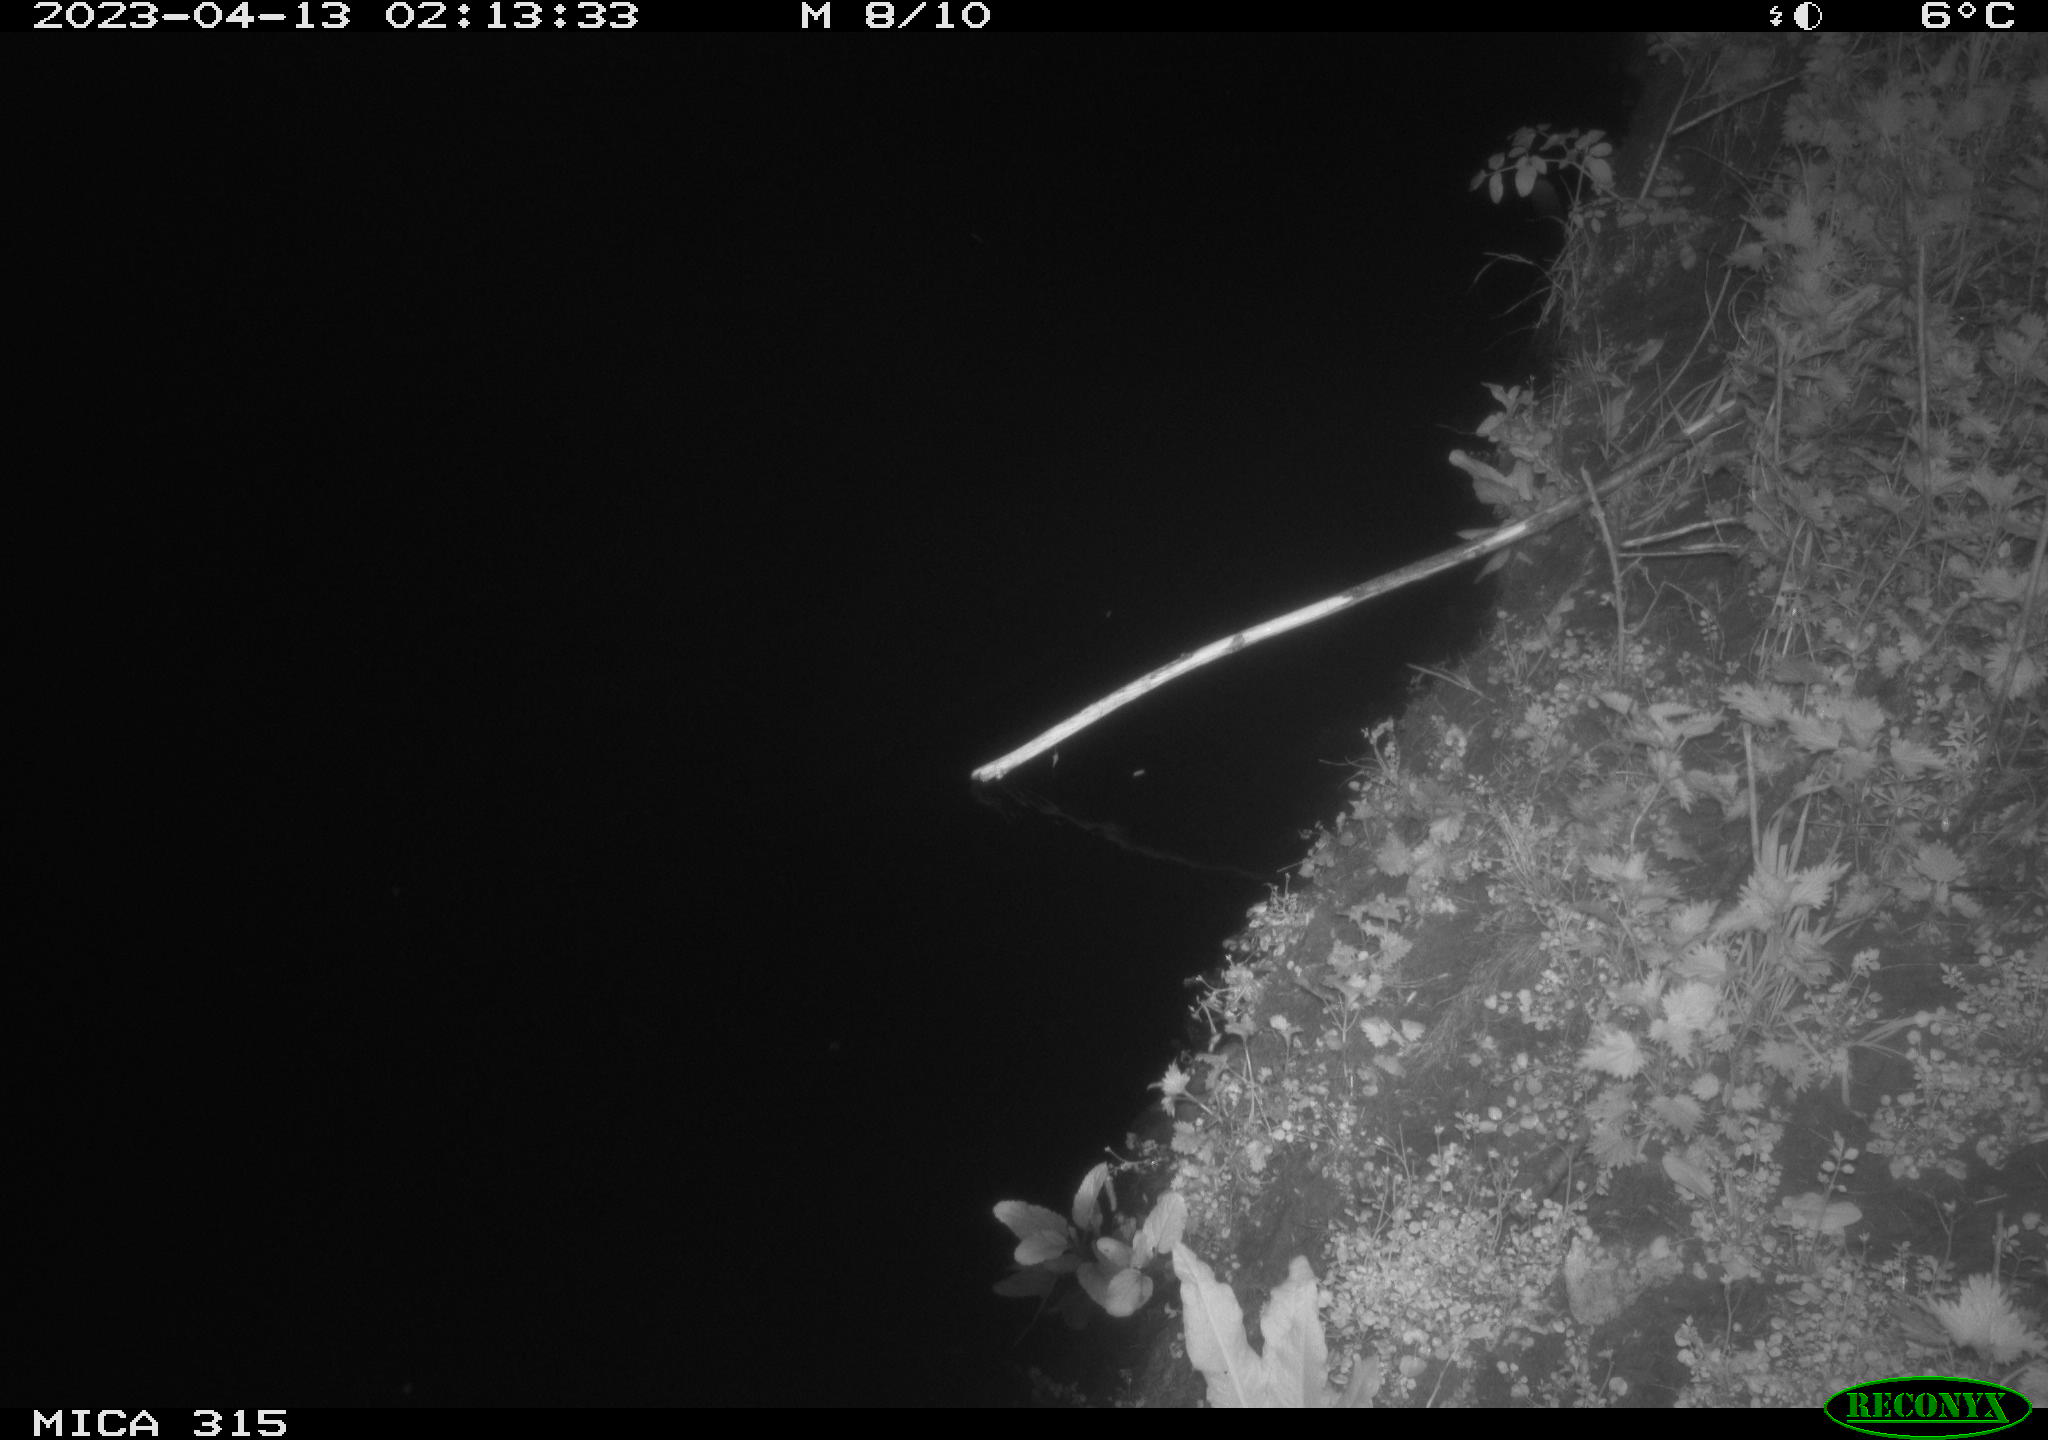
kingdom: Animalia
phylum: Chordata
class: Aves
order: Anseriformes
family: Anatidae
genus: Anas
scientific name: Anas
